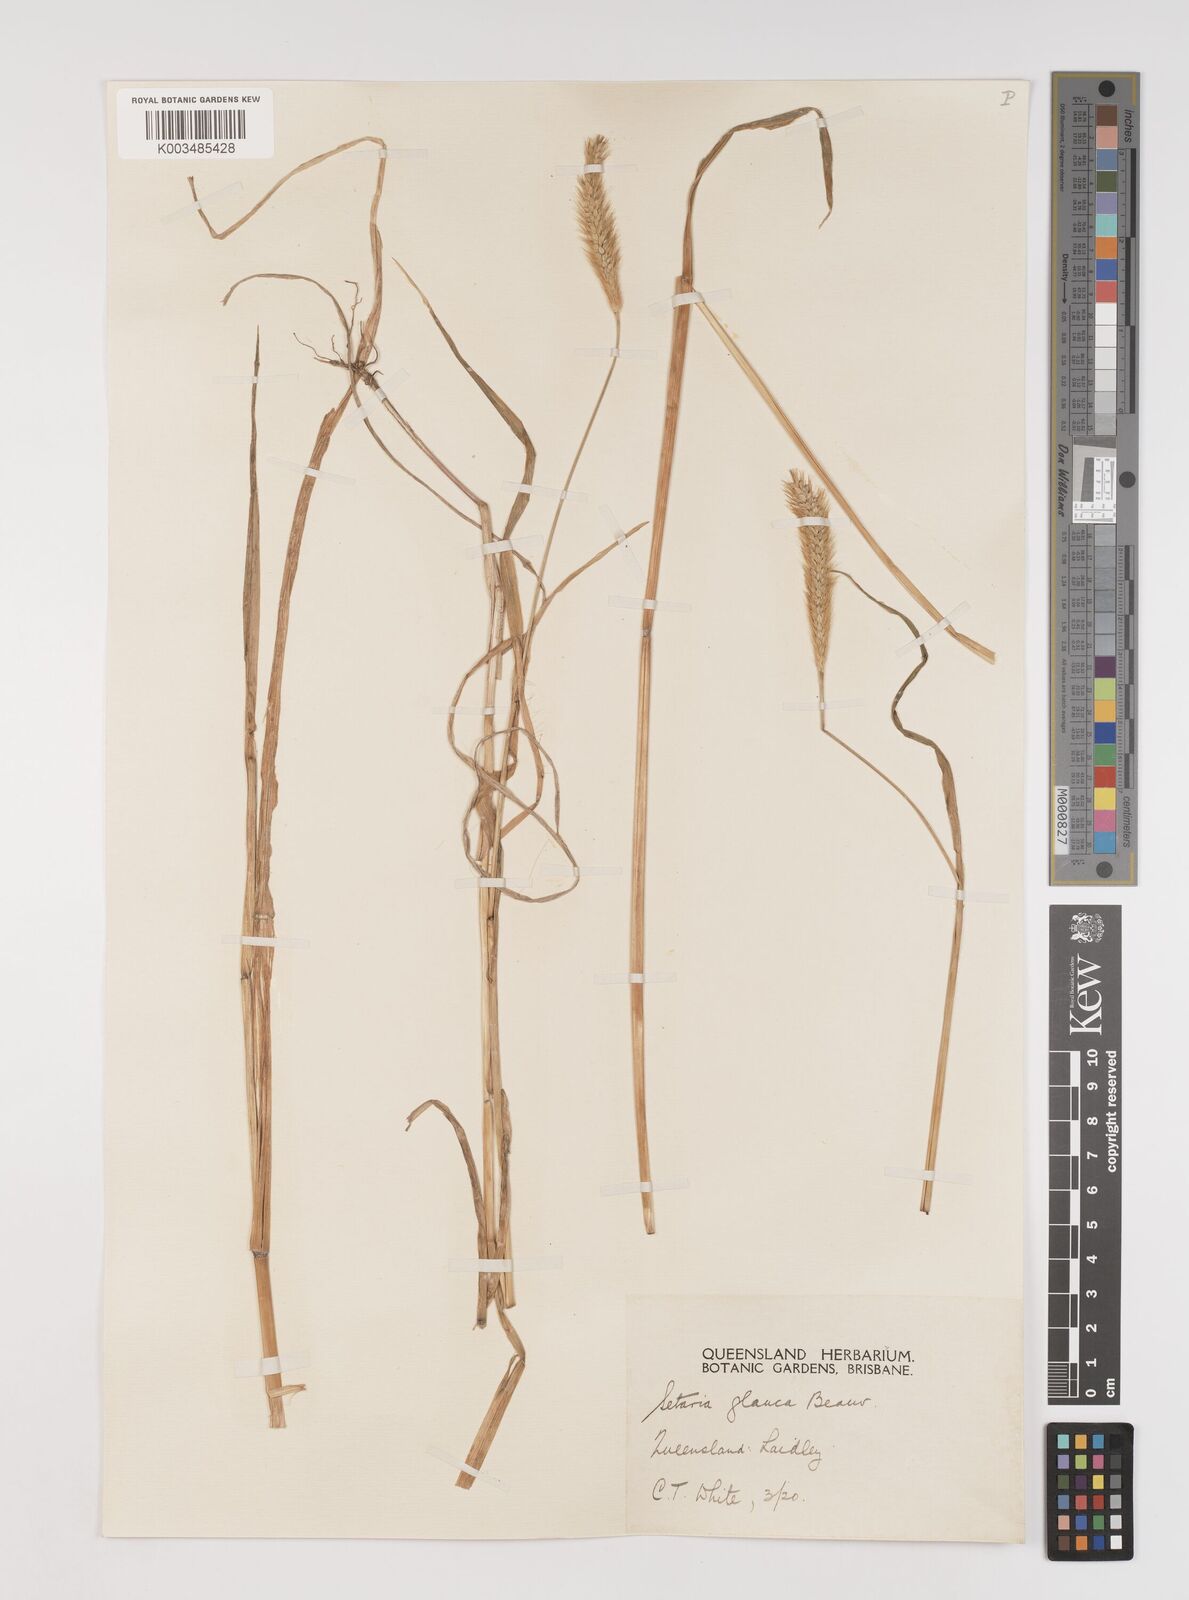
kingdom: Plantae
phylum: Tracheophyta
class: Liliopsida
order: Poales
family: Poaceae
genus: Setaria
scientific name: Setaria pumila
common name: Yellow bristle-grass
